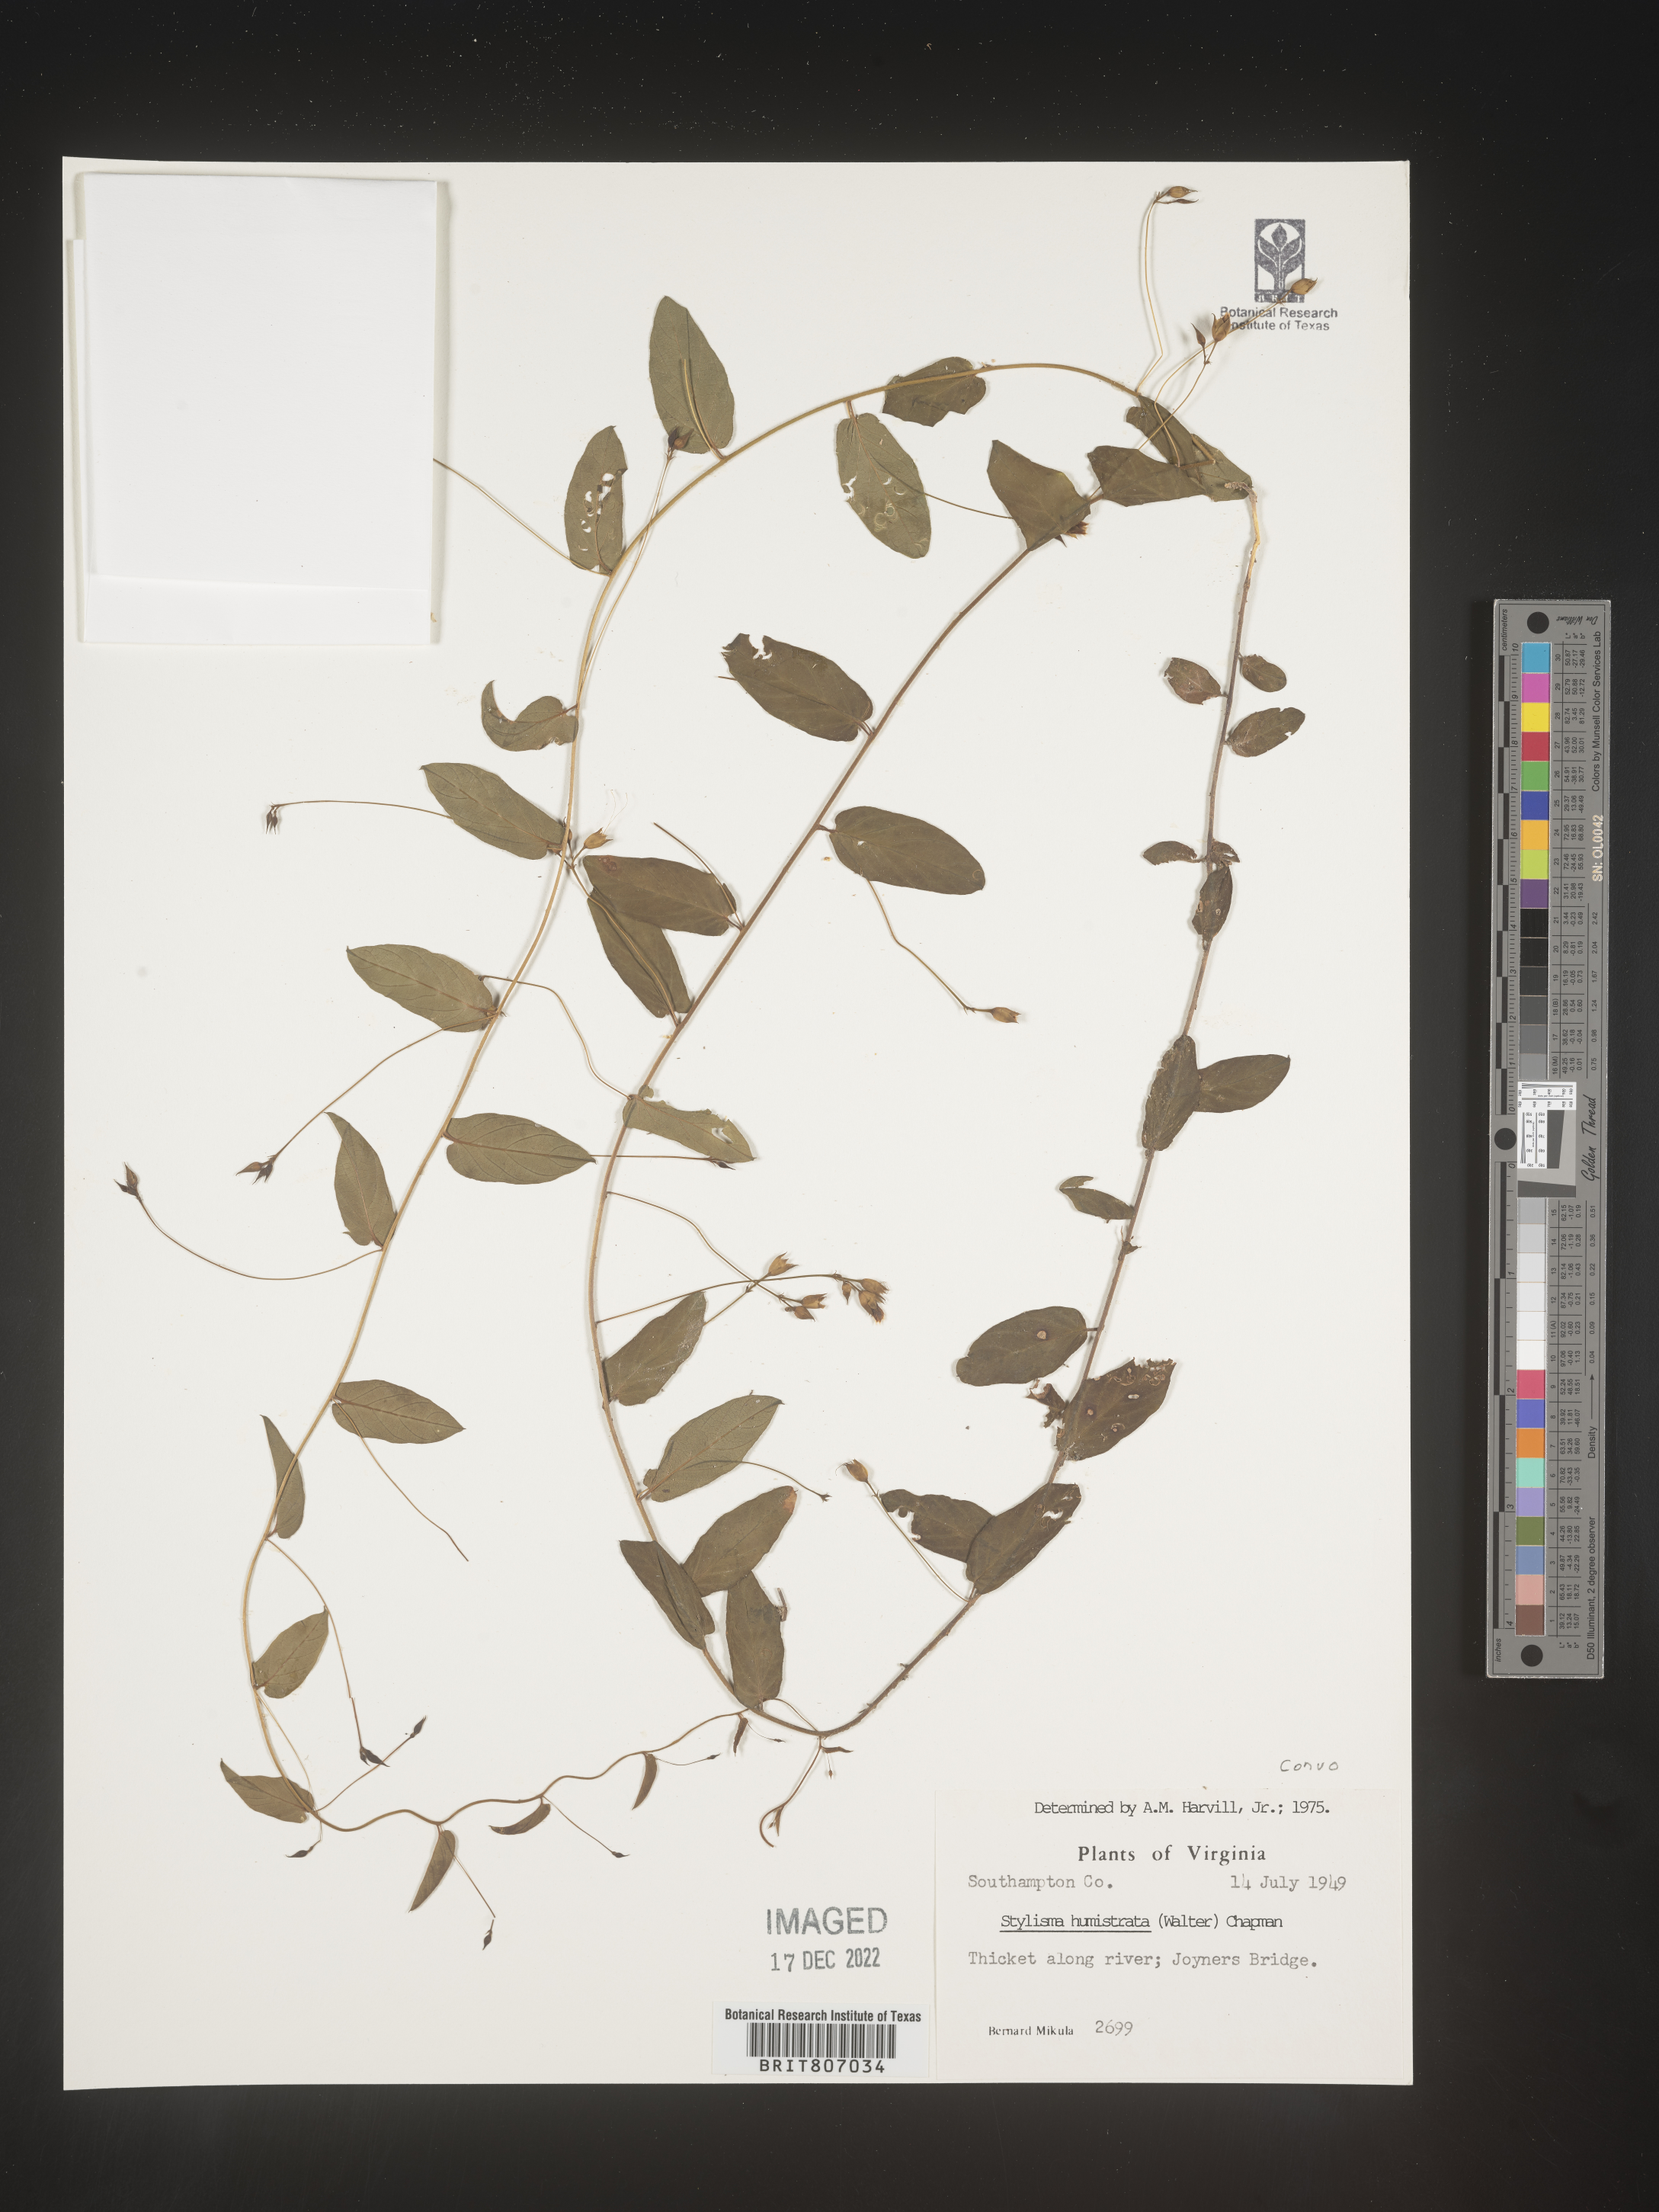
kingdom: Plantae
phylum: Tracheophyta
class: Magnoliopsida
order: Solanales
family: Convolvulaceae
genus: Stylisma
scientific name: Stylisma humistrata
